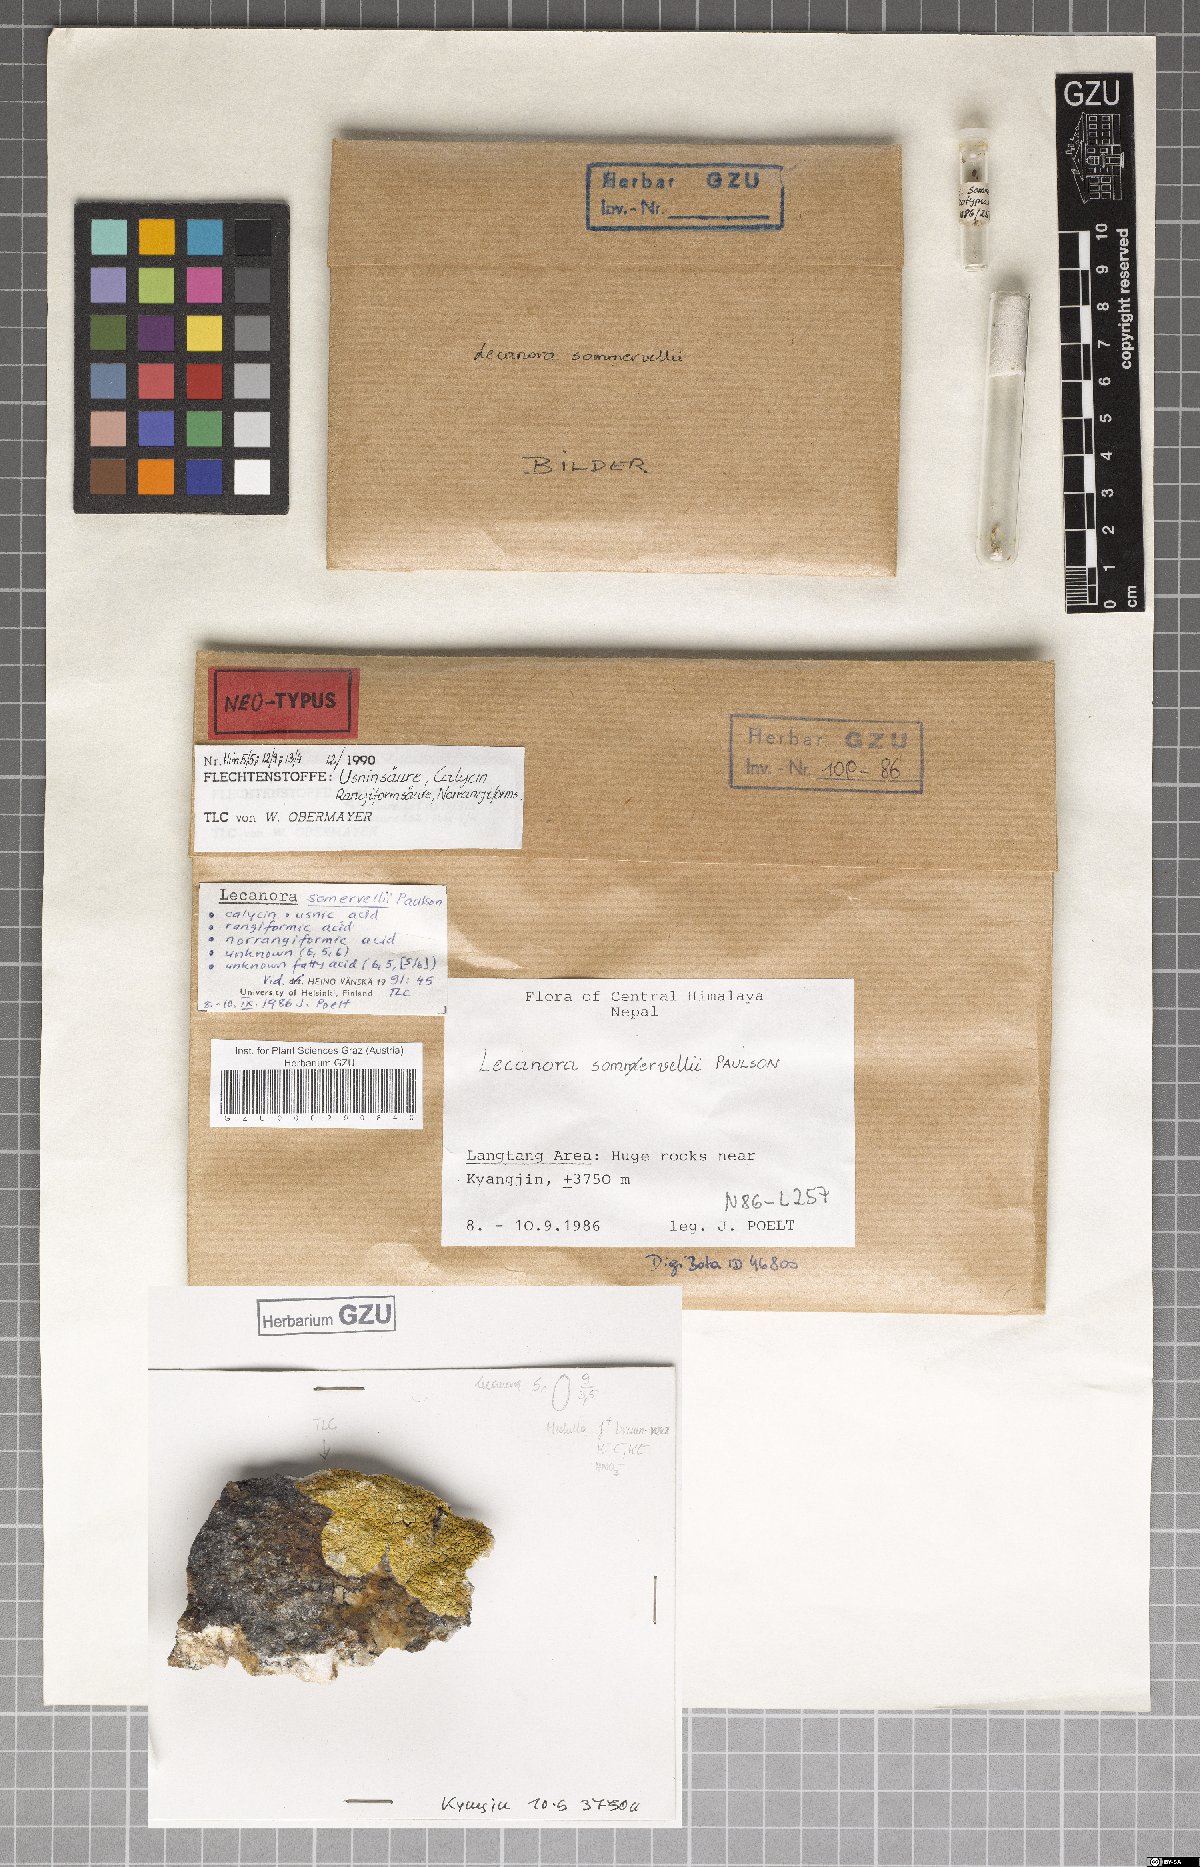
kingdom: Fungi
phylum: Ascomycota
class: Lecanoromycetes
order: Lecanorales
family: Lecanoraceae
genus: Lecanora
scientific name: Lecanora somervellii
